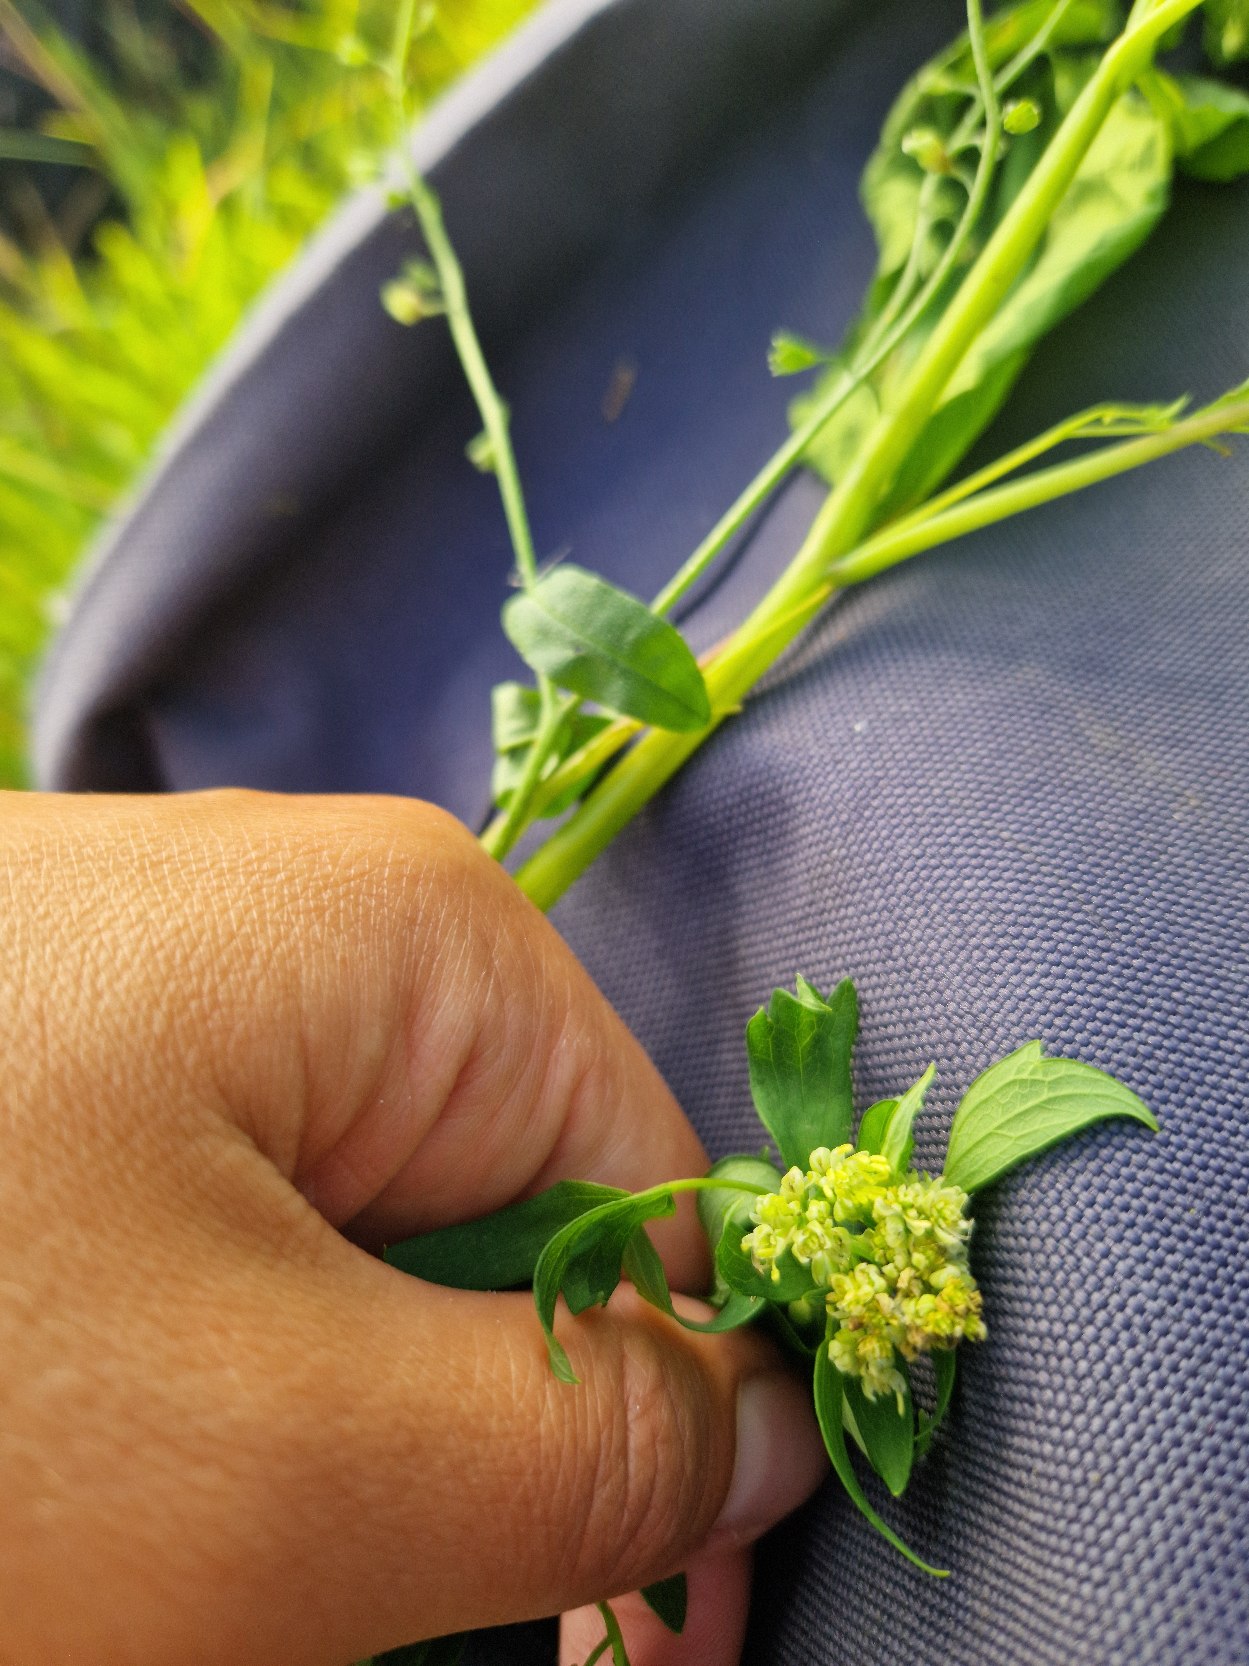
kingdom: Plantae
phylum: Tracheophyta
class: Magnoliopsida
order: Ranunculales
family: Ranunculaceae
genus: Thalictrum
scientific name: Thalictrum flavum
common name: Gul frøstjerne
